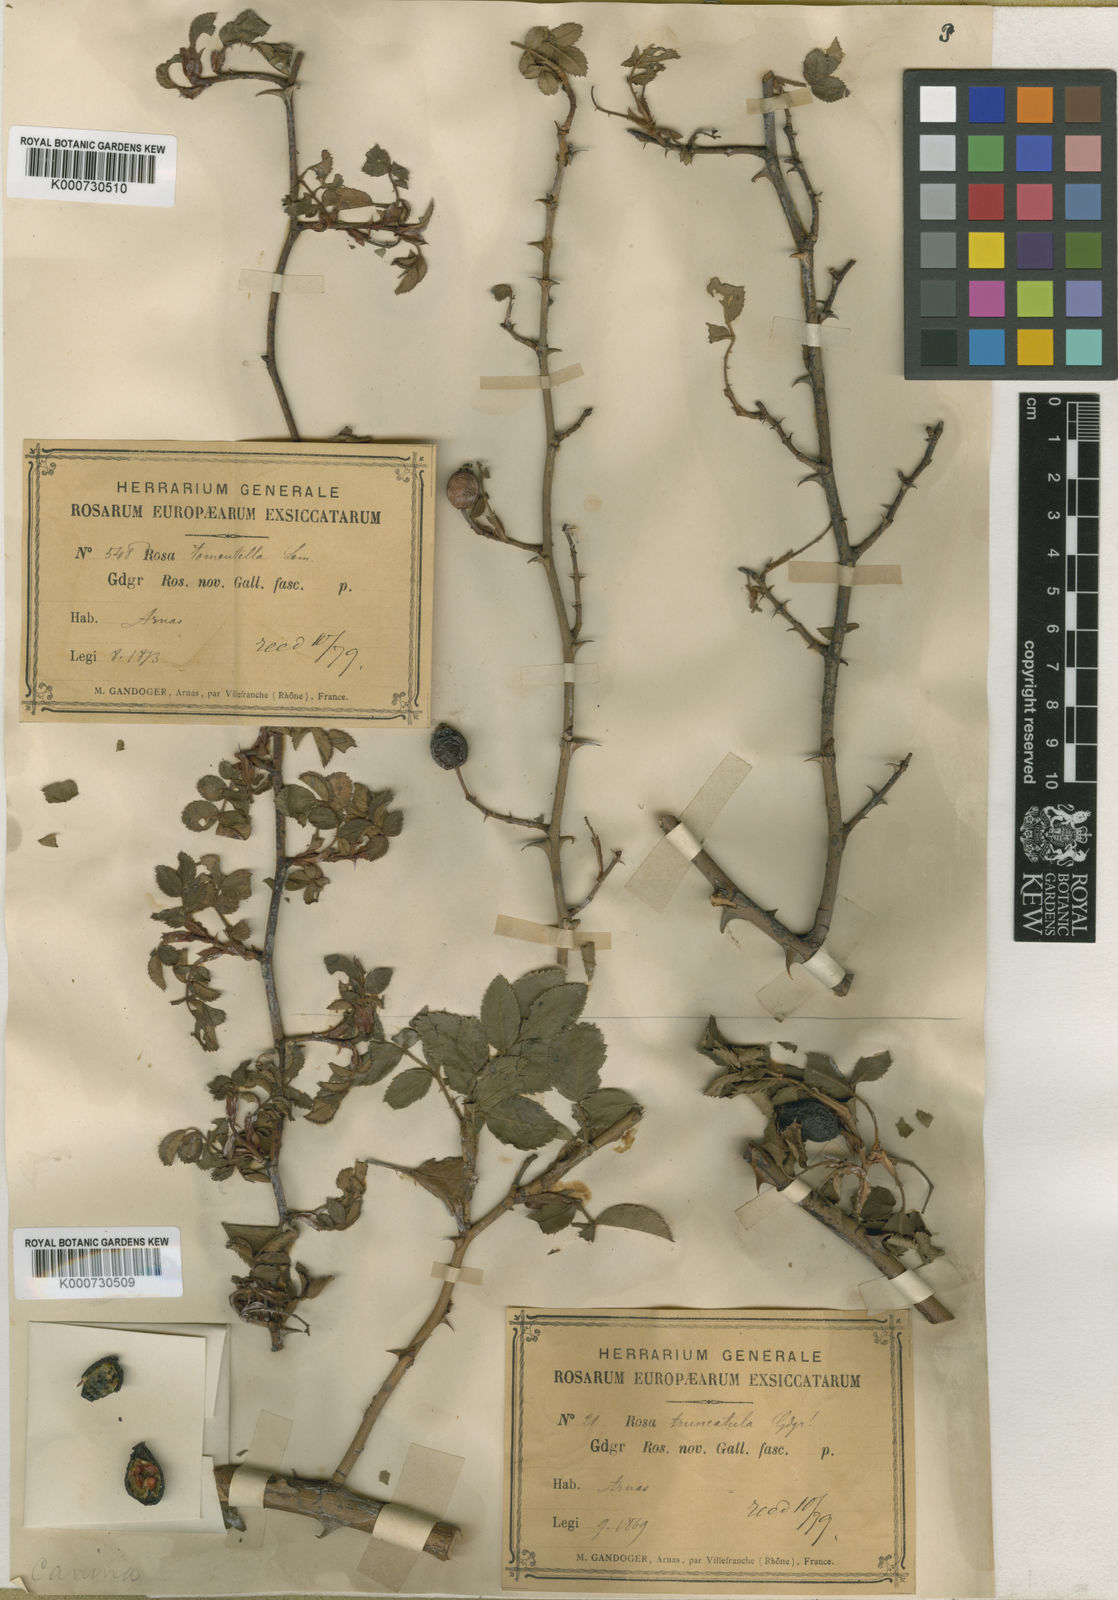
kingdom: Plantae
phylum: Tracheophyta
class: Magnoliopsida
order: Rosales
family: Rosaceae
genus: Rosa
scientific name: Rosa canina
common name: Dog rose
